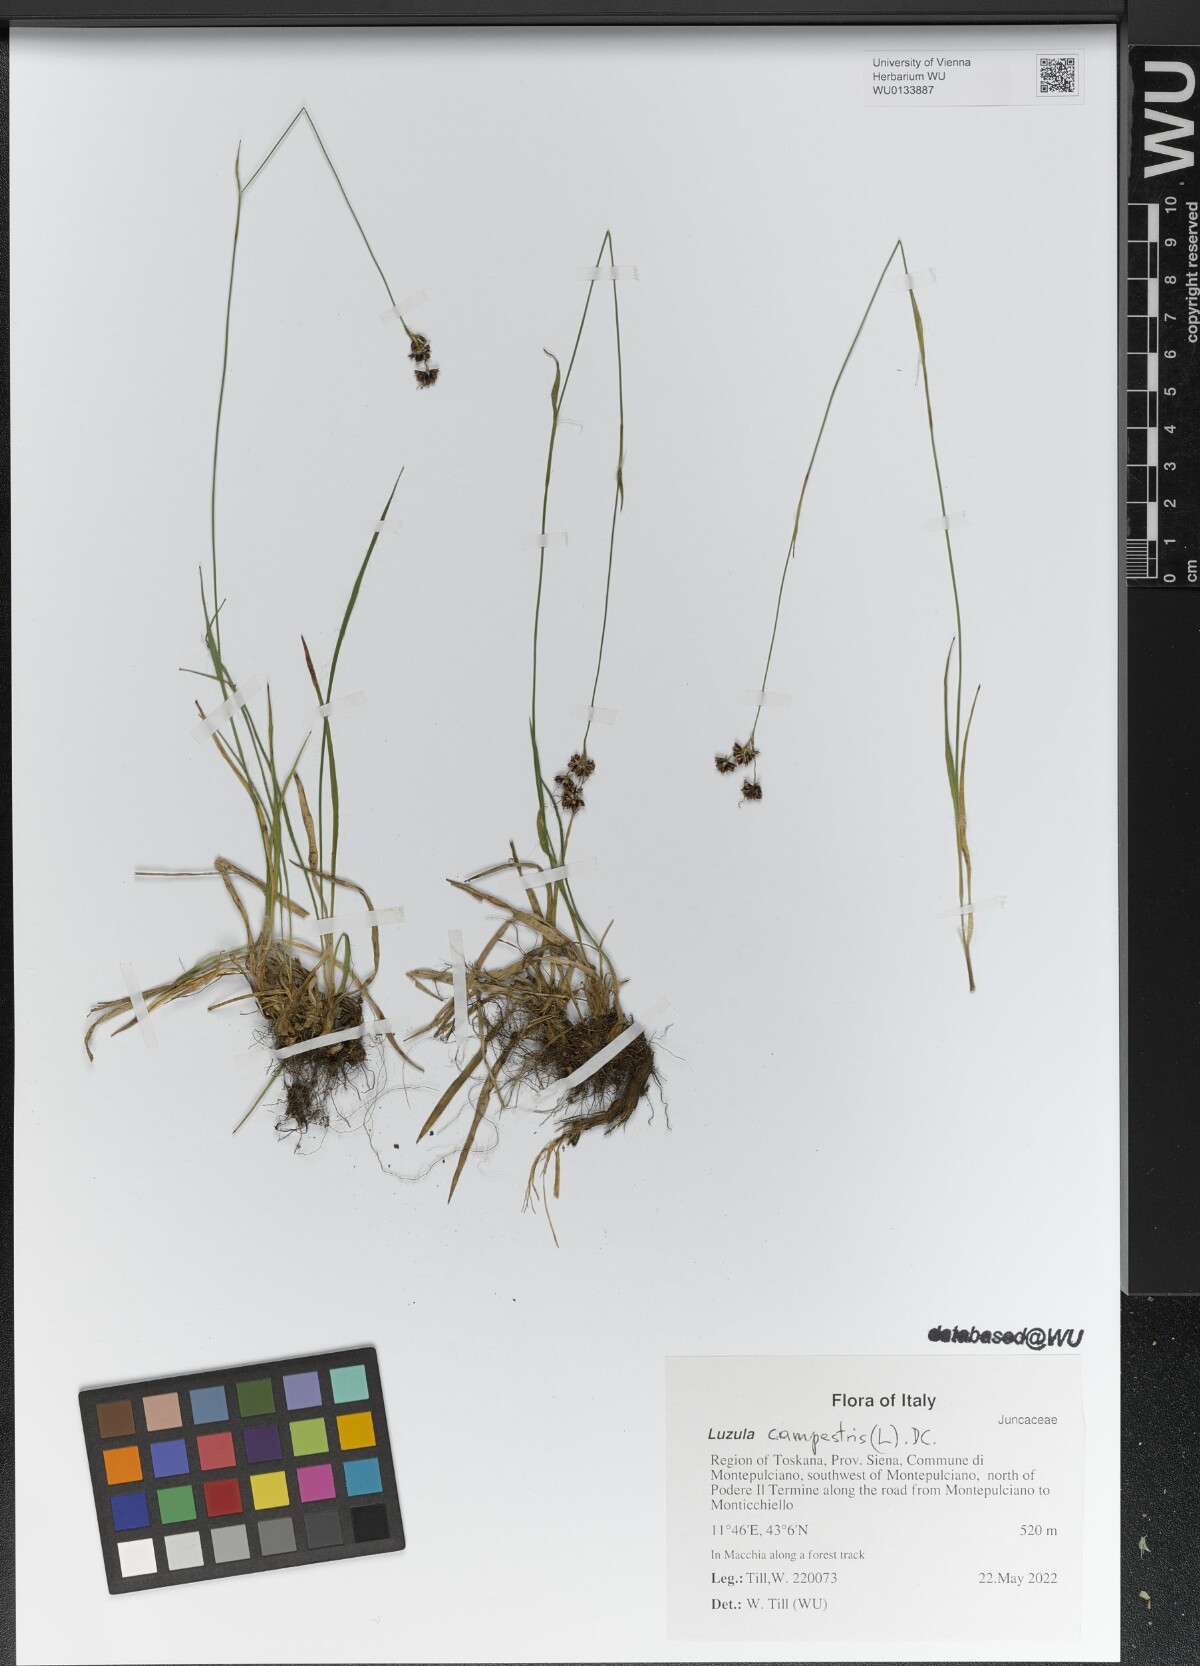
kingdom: Plantae
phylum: Tracheophyta
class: Liliopsida
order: Poales
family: Juncaceae
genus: Luzula
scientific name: Luzula campestris
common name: Field wood-rush
